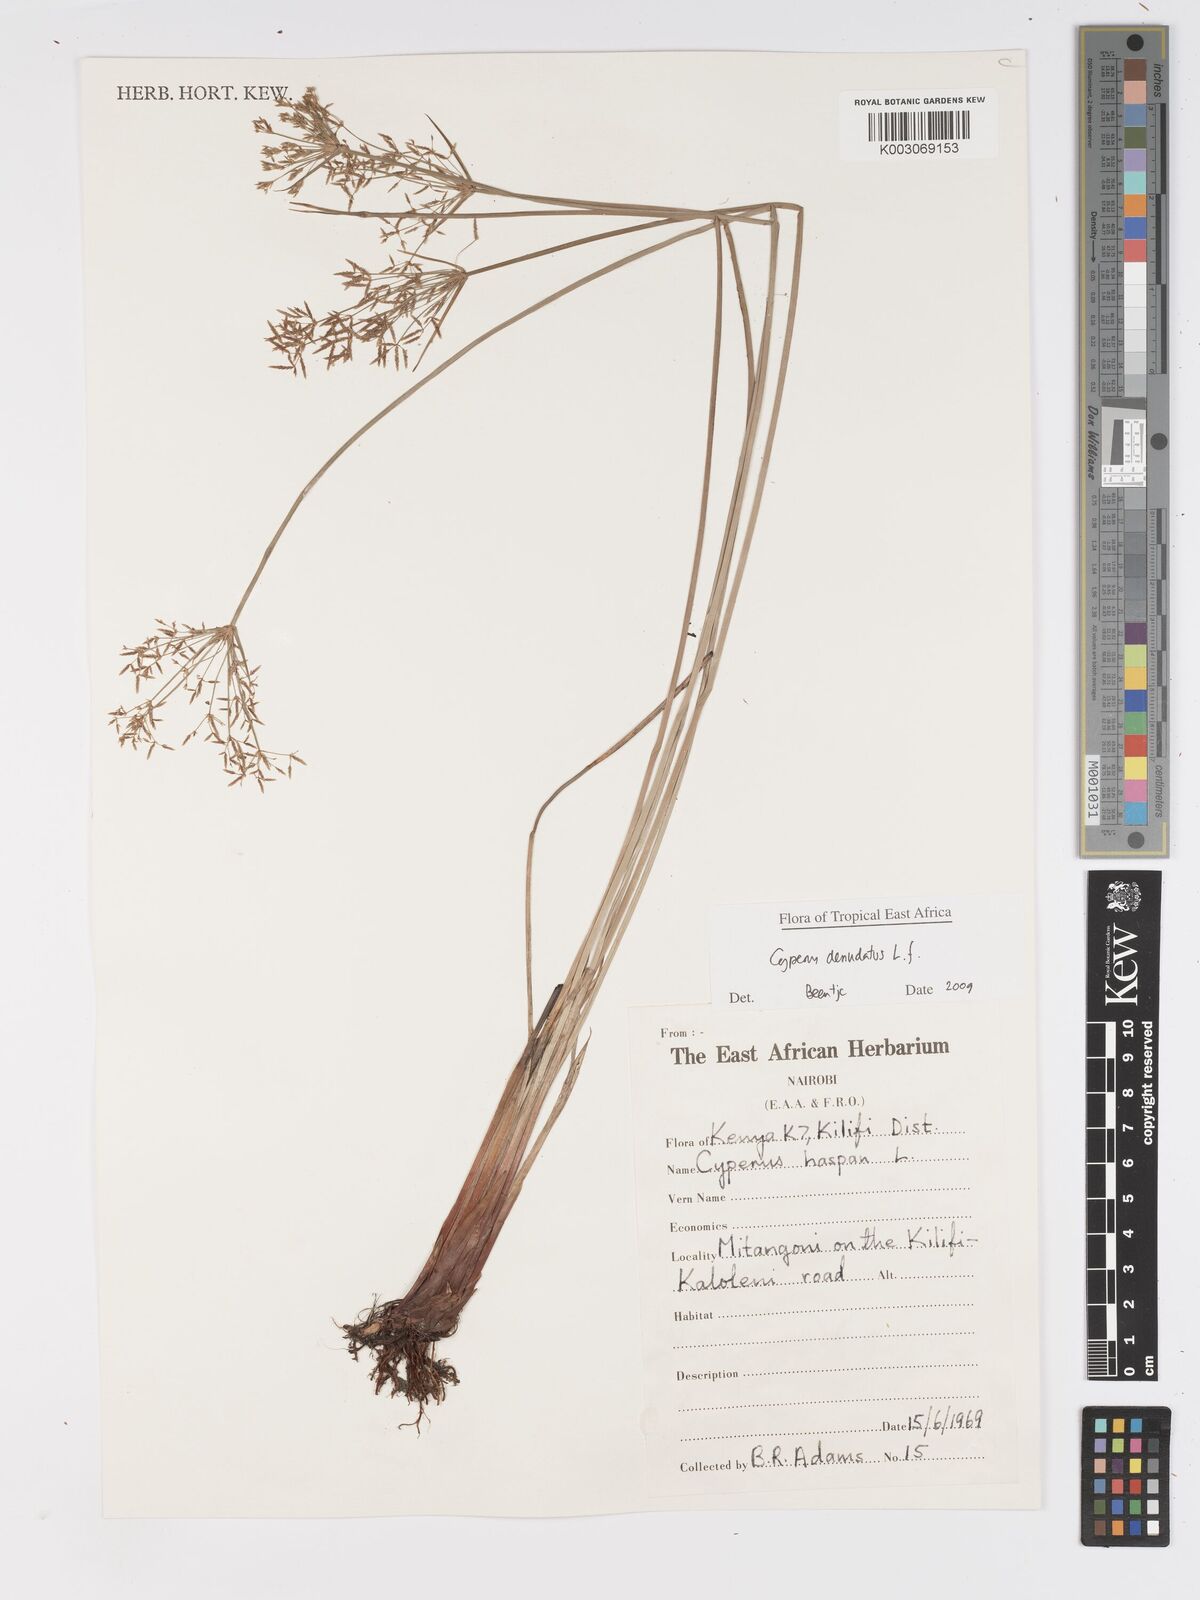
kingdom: Plantae
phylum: Tracheophyta
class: Liliopsida
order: Poales
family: Cyperaceae
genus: Cyperus
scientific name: Cyperus denudatus
